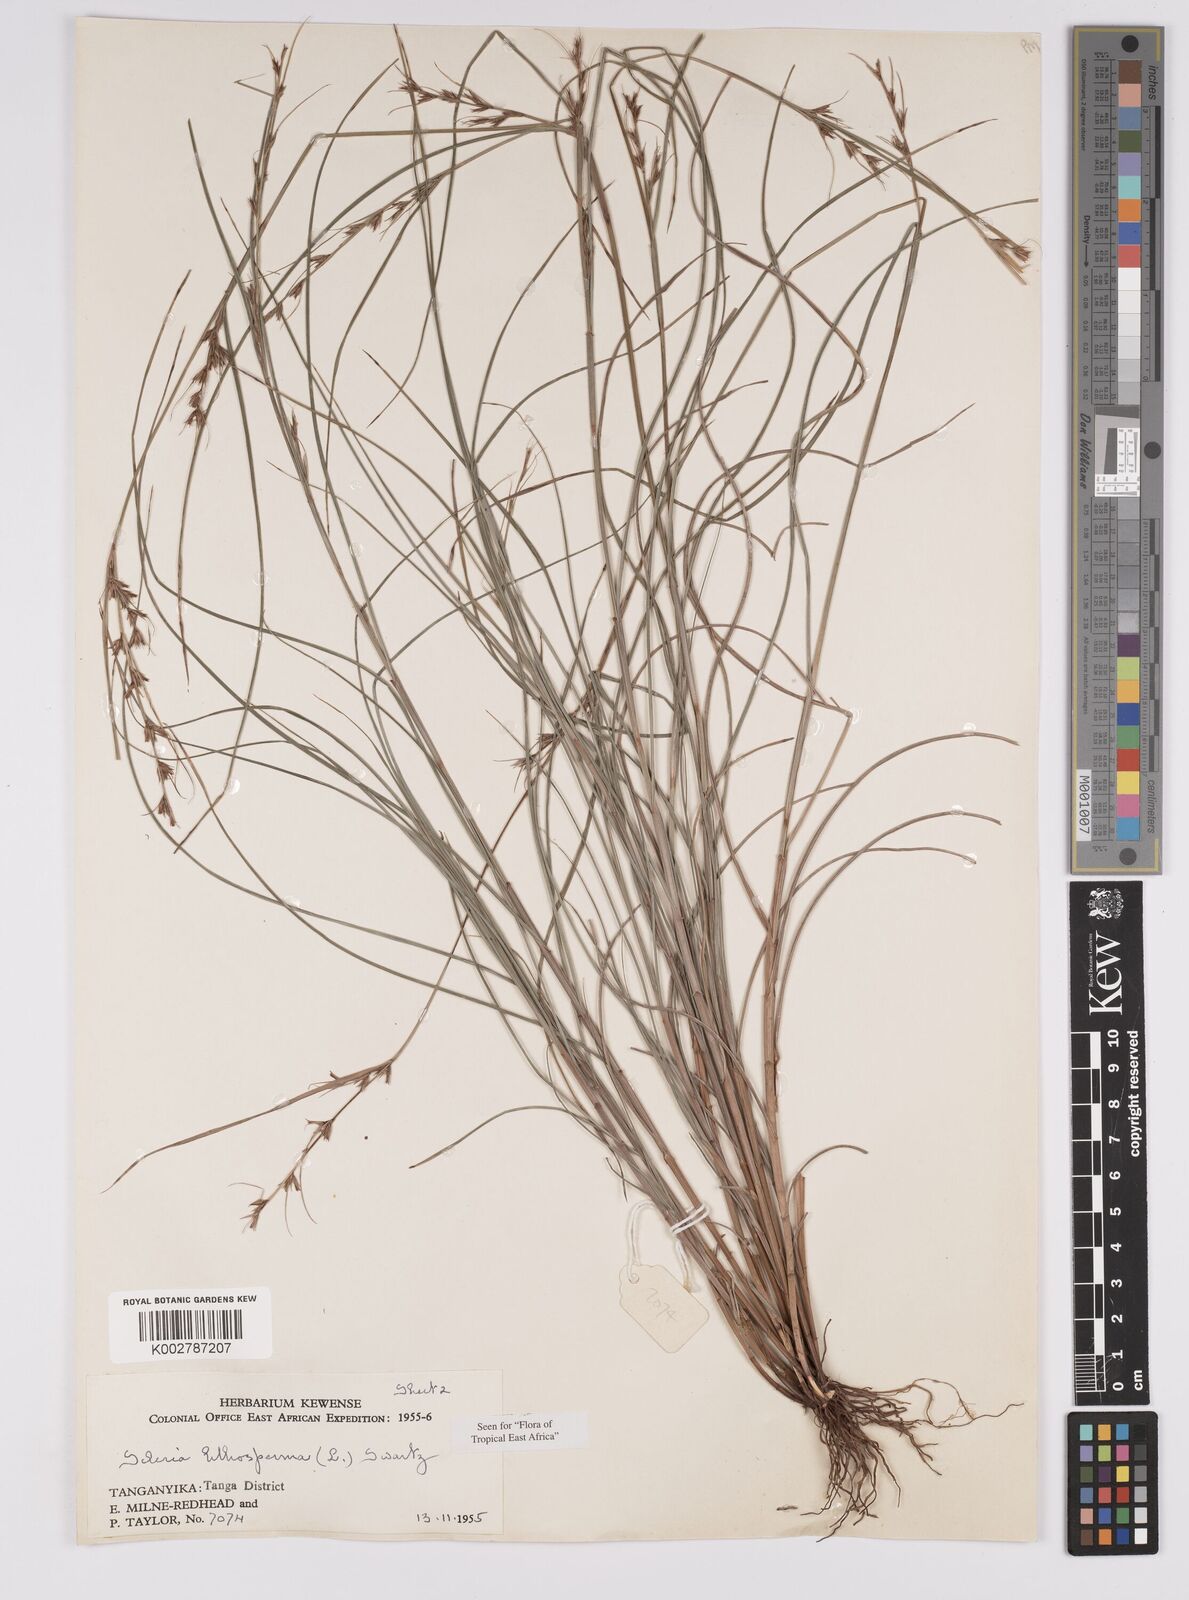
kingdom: Plantae
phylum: Tracheophyta
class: Liliopsida
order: Poales
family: Cyperaceae
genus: Scleria
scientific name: Scleria lithosperma
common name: Florida keys nut-rush
